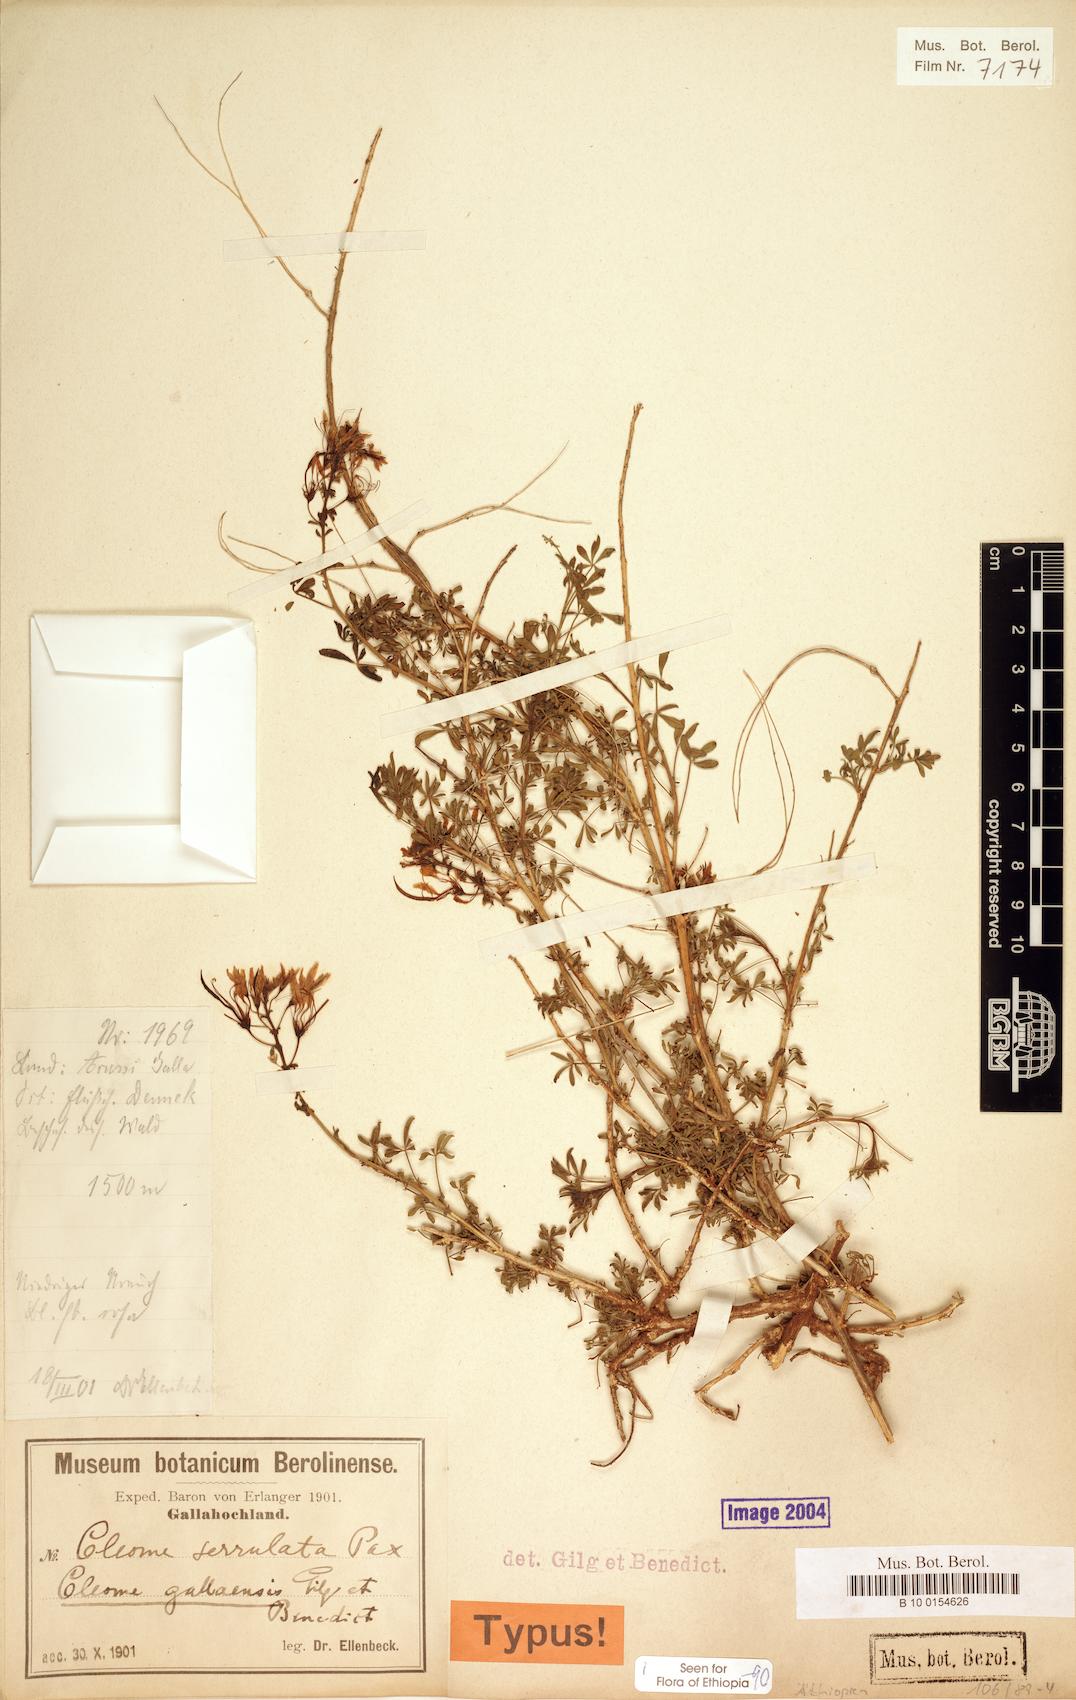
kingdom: Plantae
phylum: Tracheophyta
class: Magnoliopsida
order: Brassicales
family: Cleomaceae
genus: Sieruela
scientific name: Sieruela gallaensis
